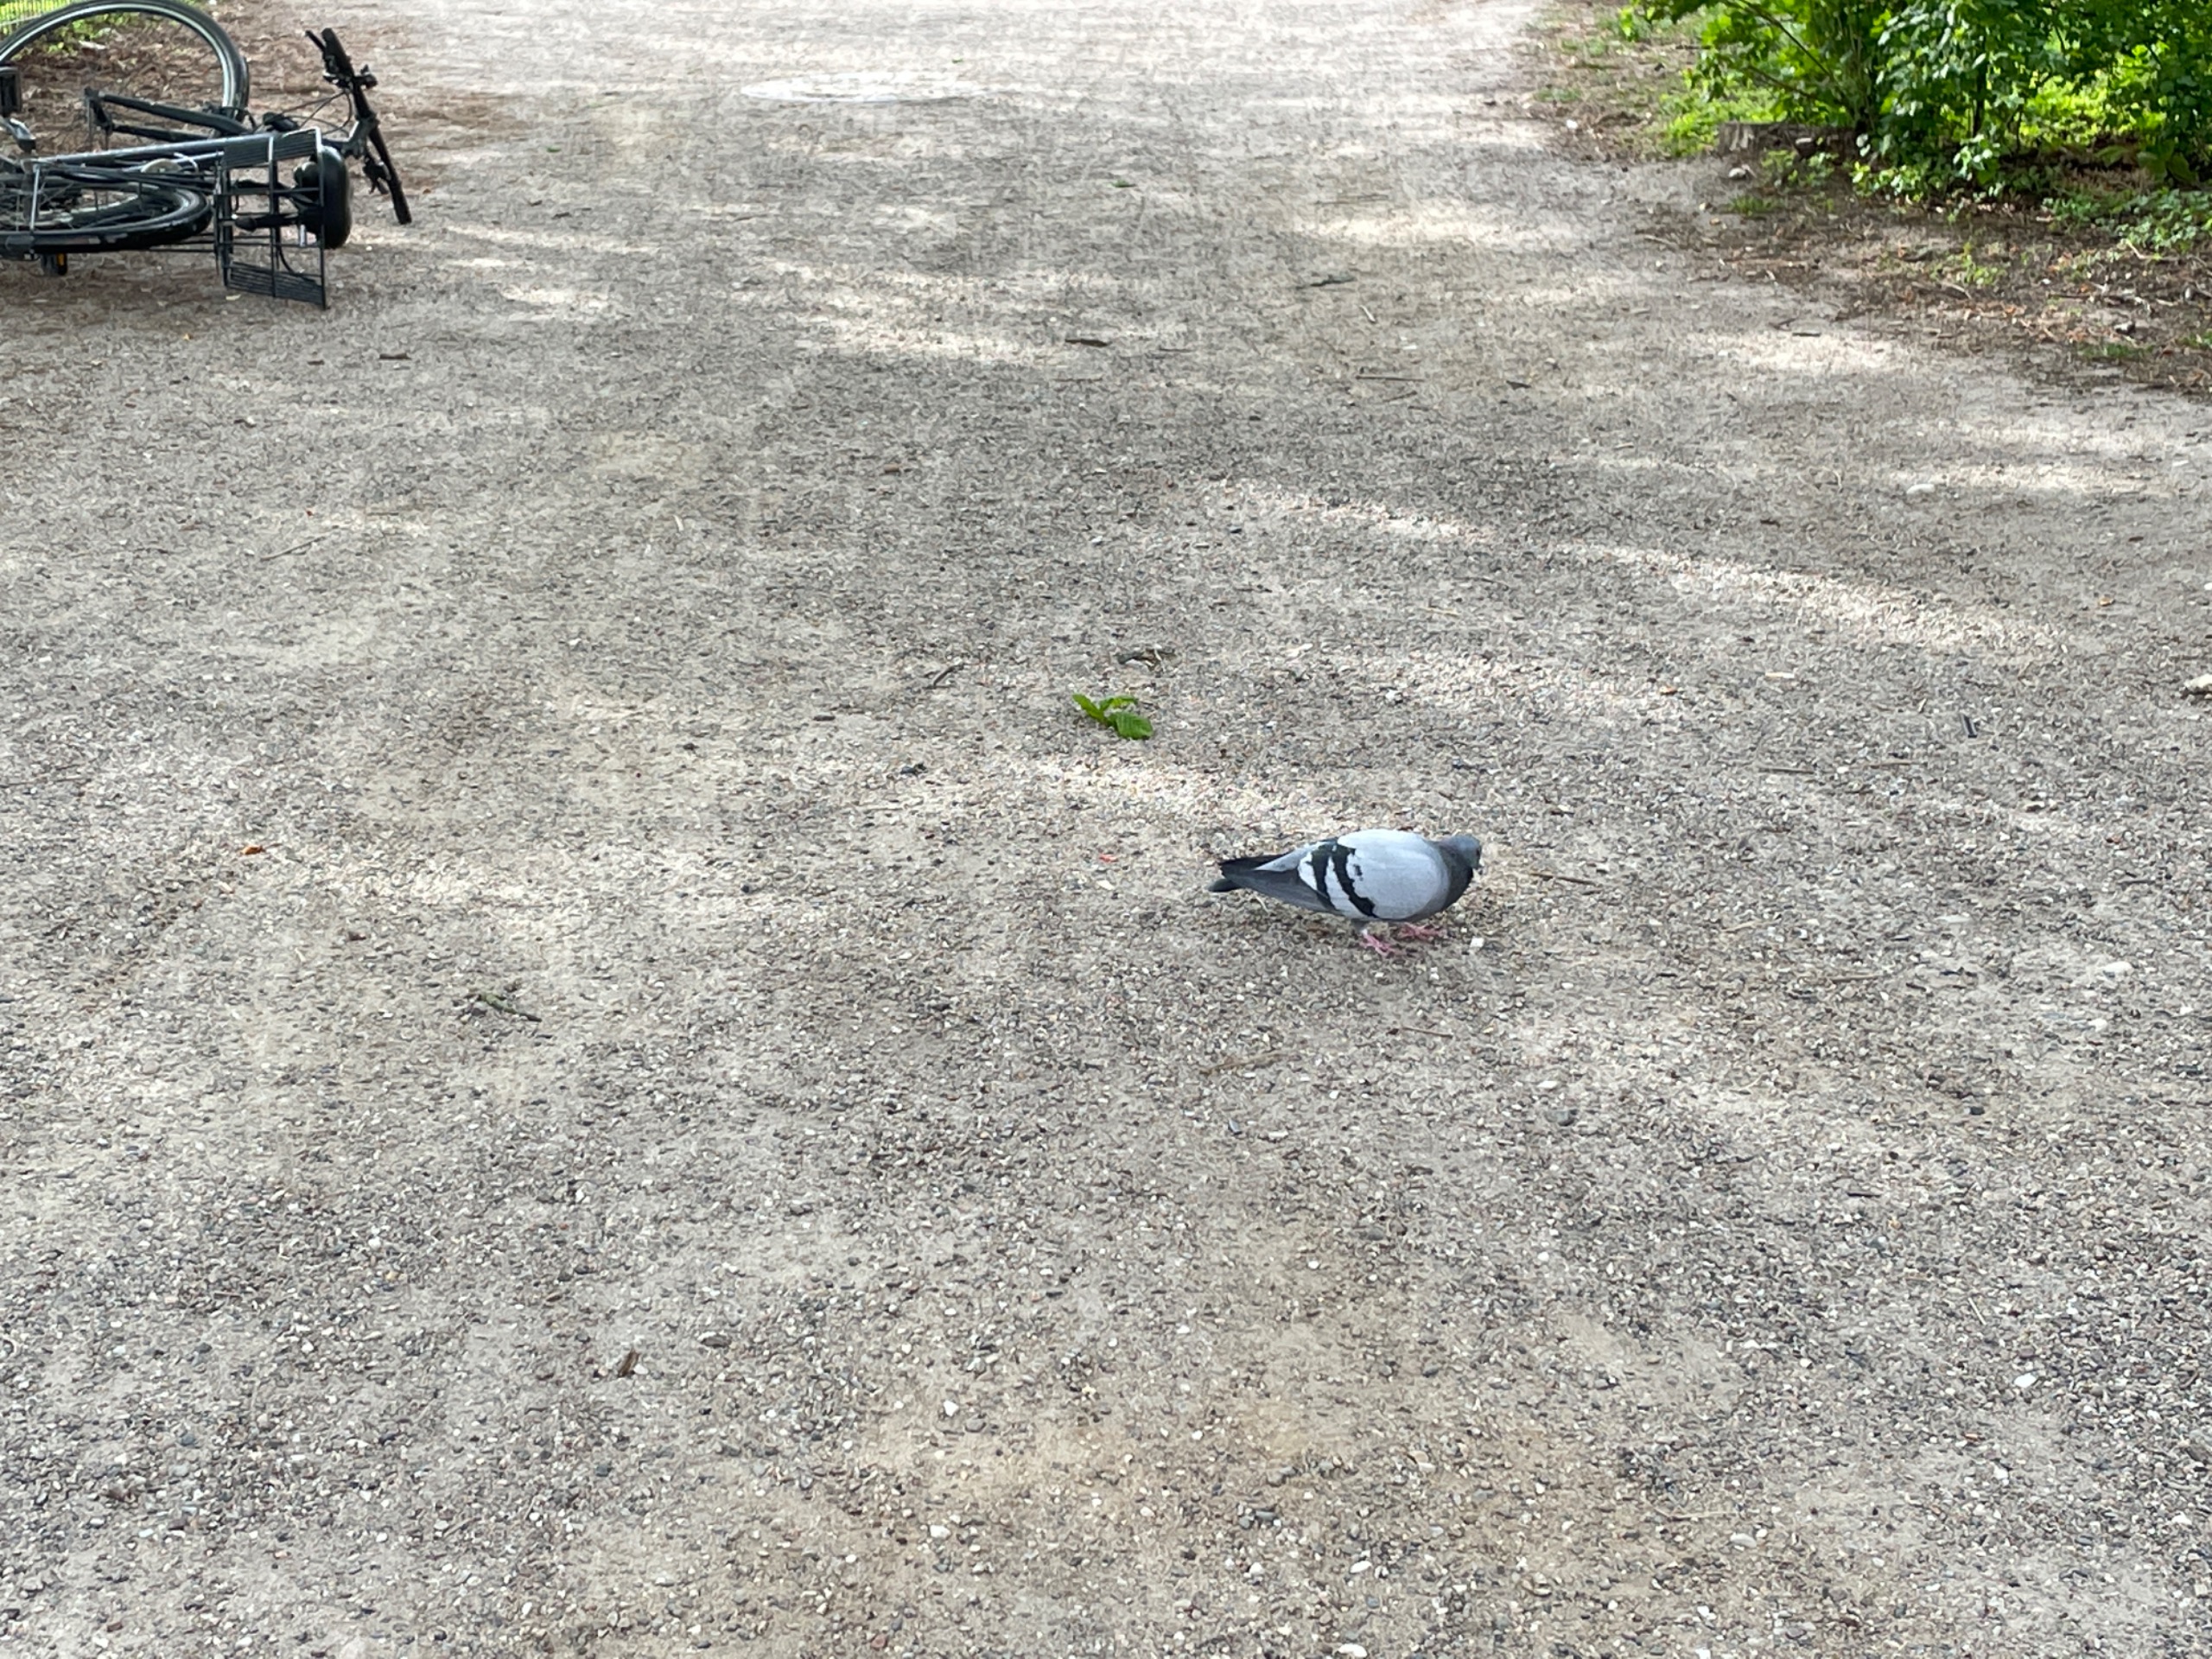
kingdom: Animalia
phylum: Chordata
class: Aves
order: Columbiformes
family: Columbidae
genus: Columba
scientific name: Columba livia
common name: Tamdue
